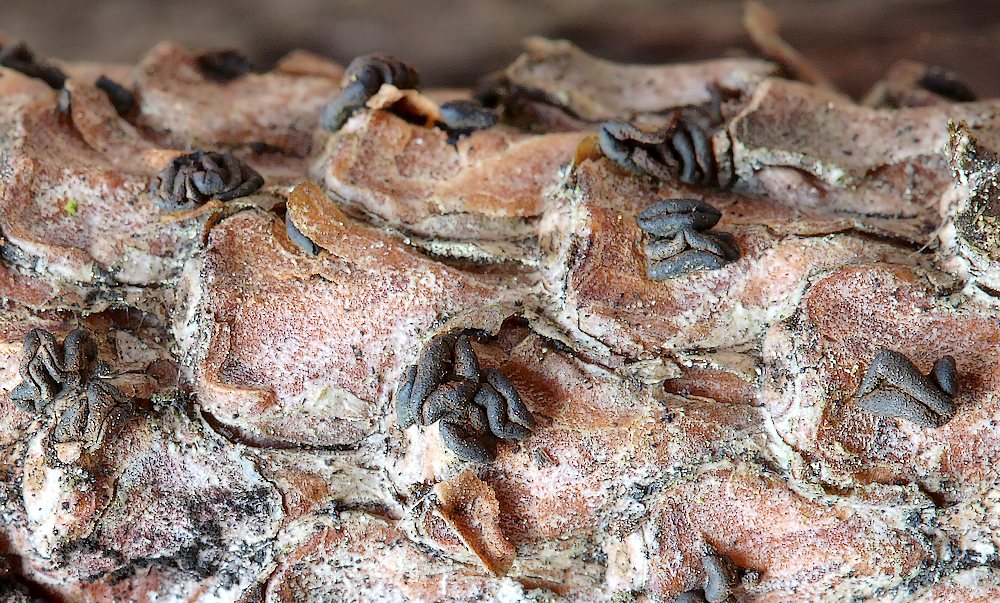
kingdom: Fungi
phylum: Ascomycota
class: Leotiomycetes
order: Helotiales
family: Cenangiaceae
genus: Cenangium
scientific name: Cenangium ferruginosum
